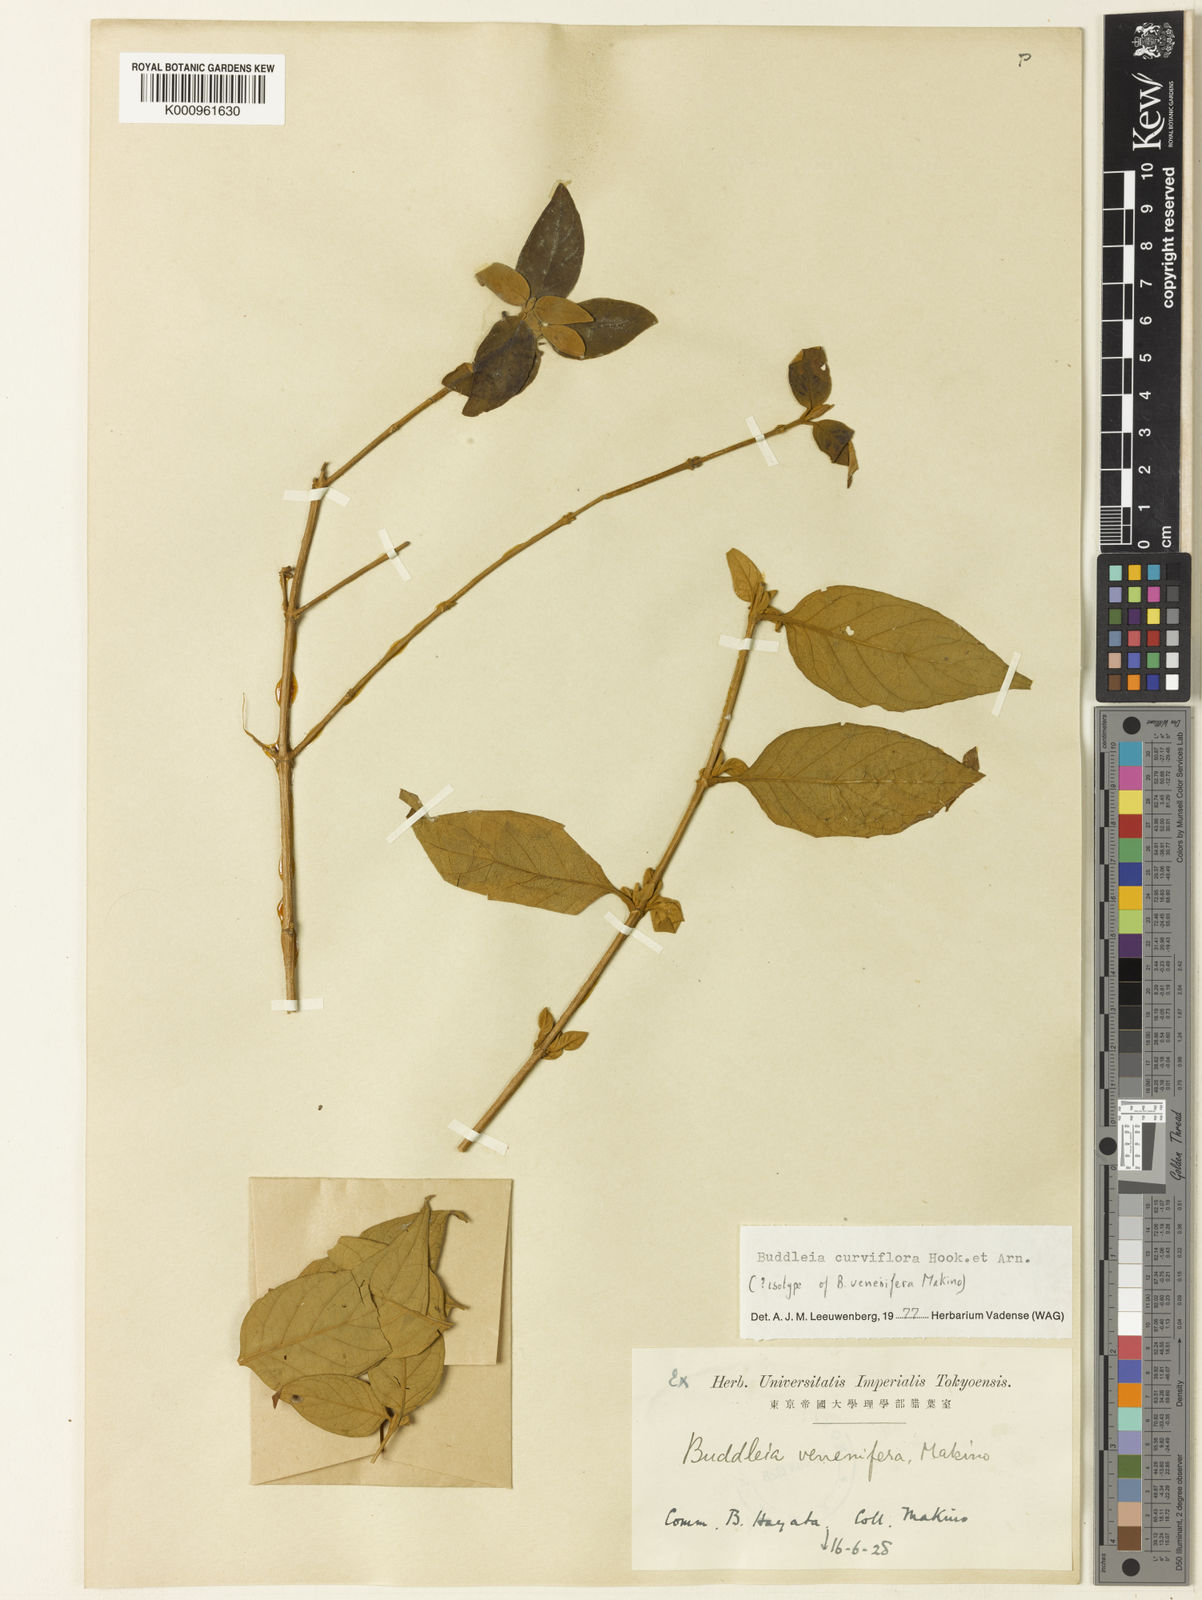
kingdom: Plantae
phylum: Tracheophyta
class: Magnoliopsida
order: Lamiales
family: Scrophulariaceae
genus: Buddleja
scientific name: Buddleja curviflora
